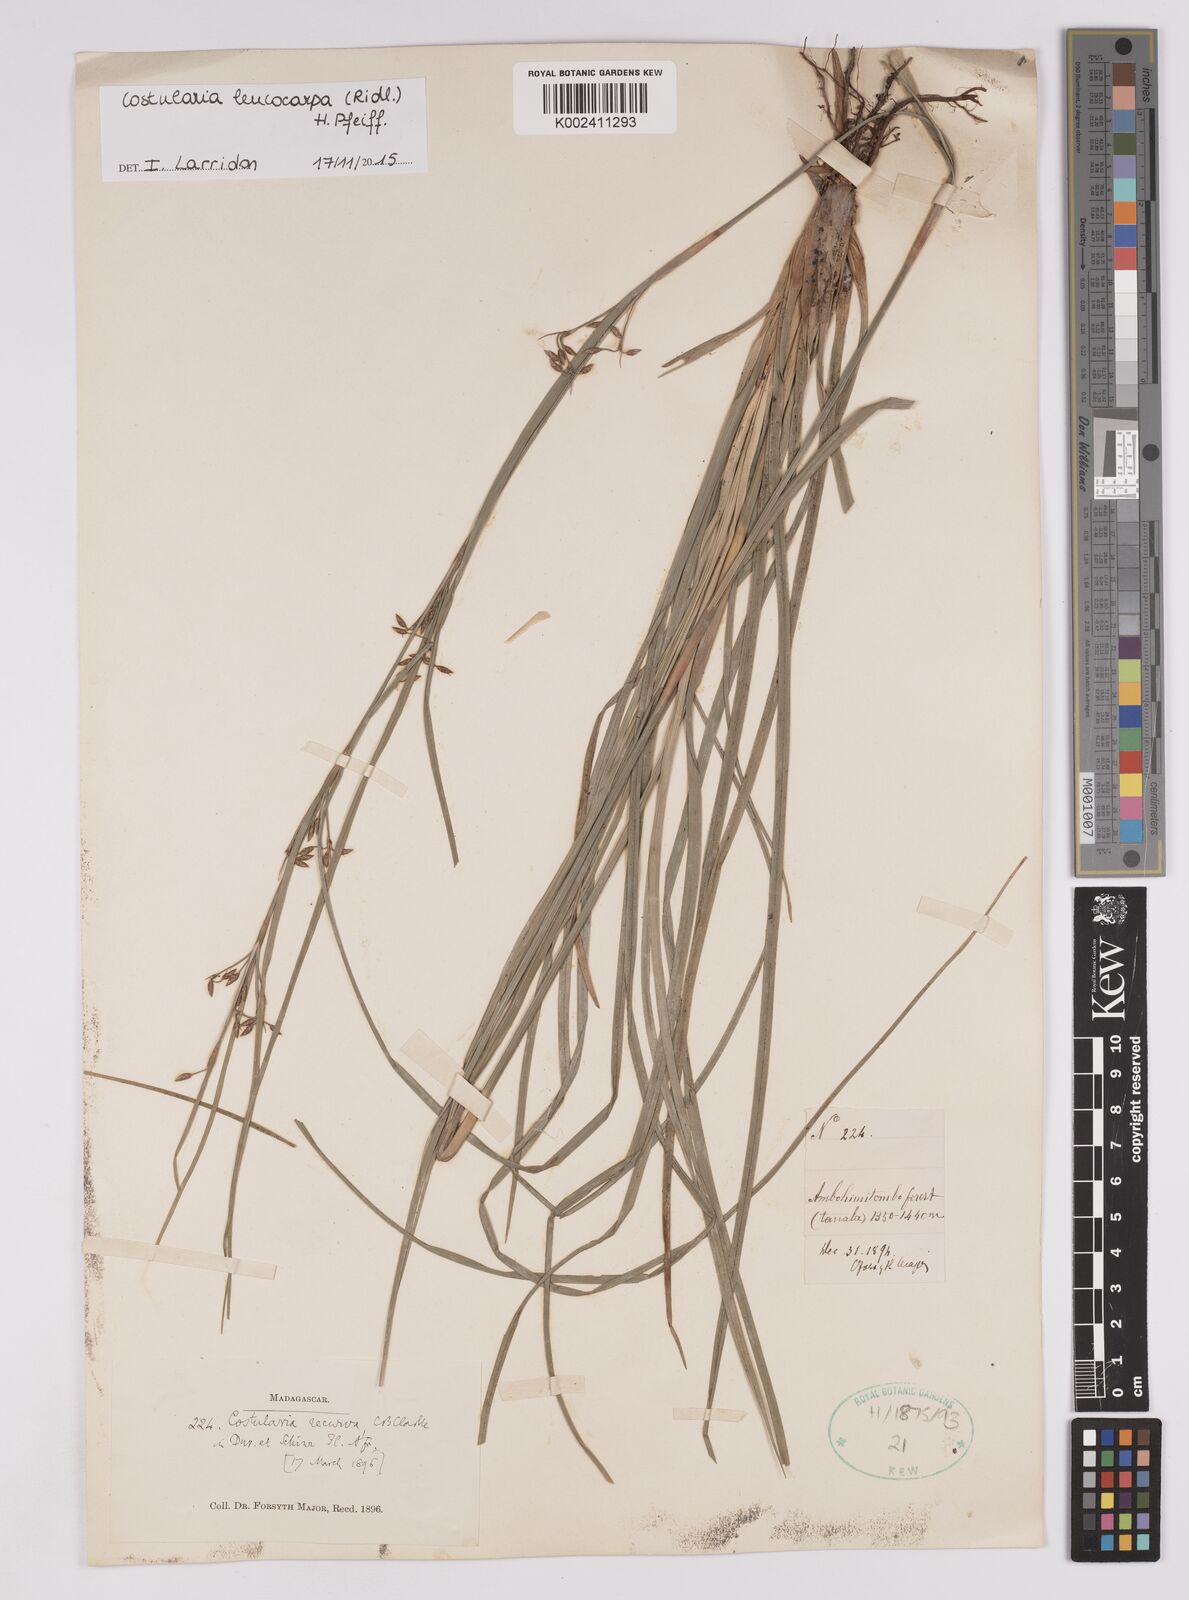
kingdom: Plantae
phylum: Tracheophyta
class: Liliopsida
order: Poales
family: Cyperaceae
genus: Costularia
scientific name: Costularia leucocarpa
